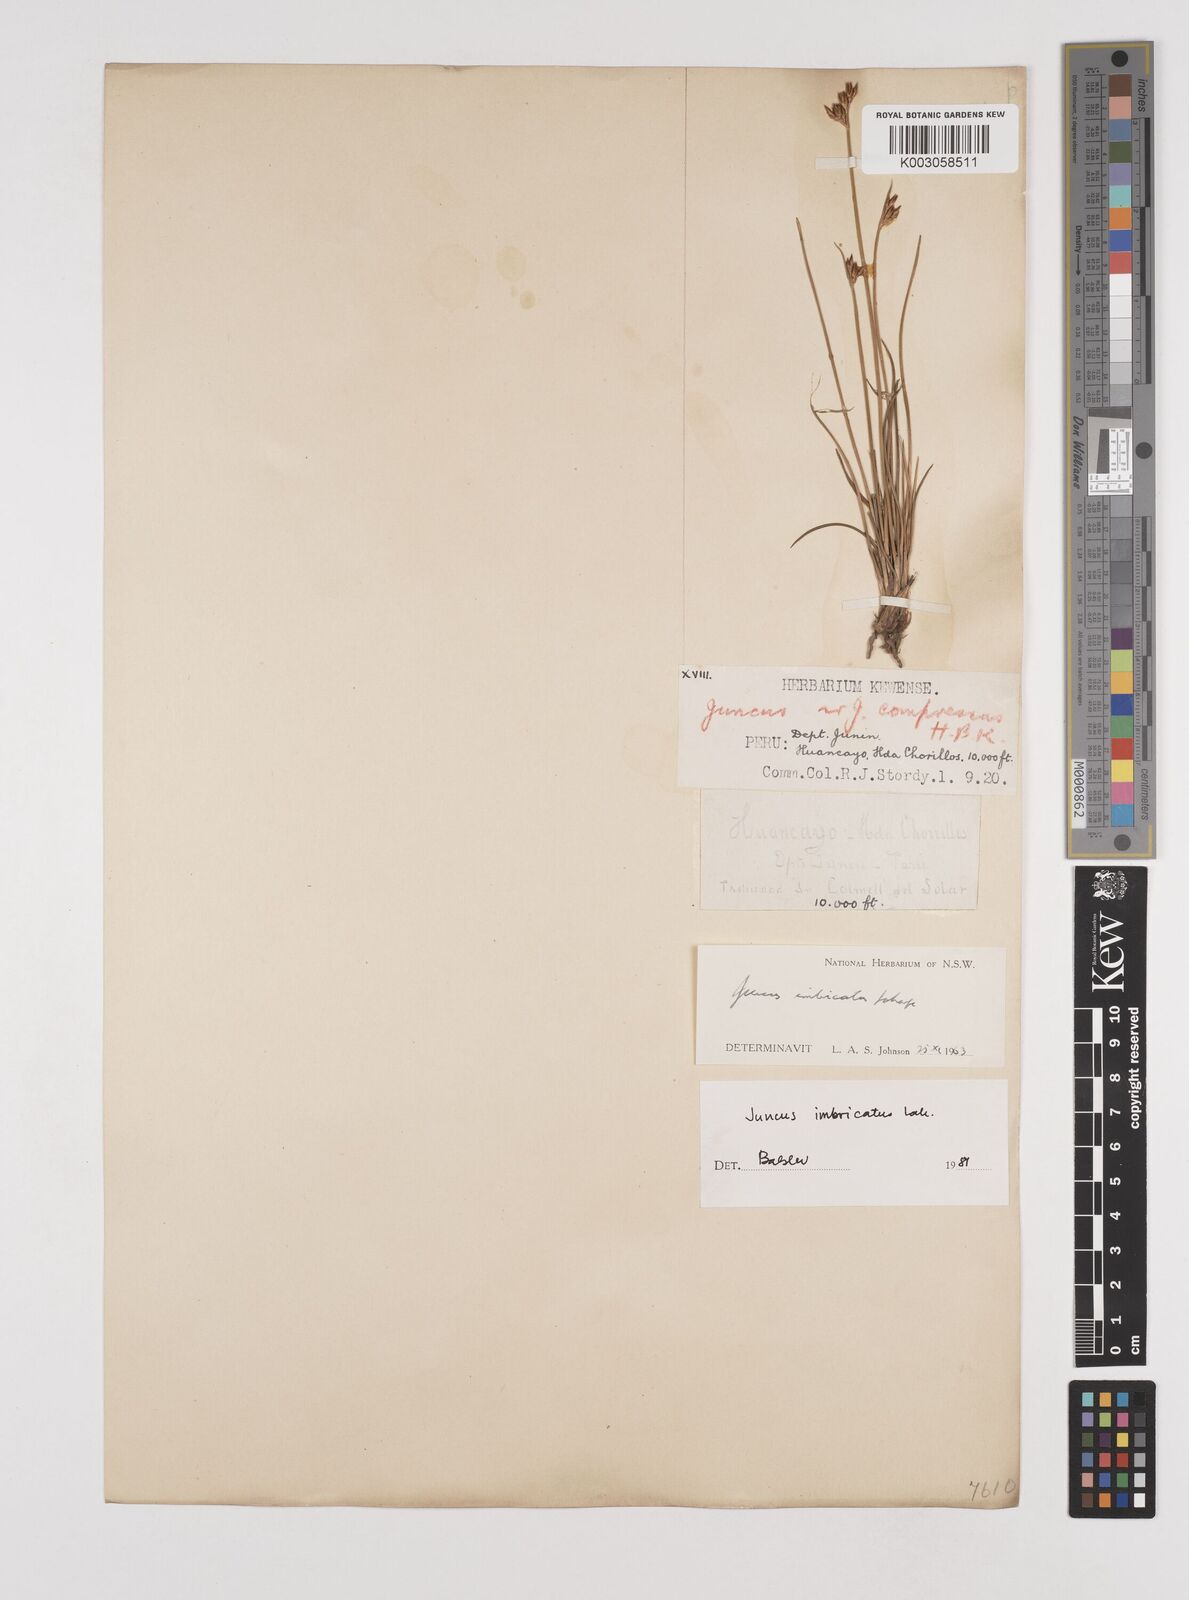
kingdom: Plantae
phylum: Tracheophyta
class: Liliopsida
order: Poales
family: Juncaceae
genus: Juncus
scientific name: Juncus imbricatus
